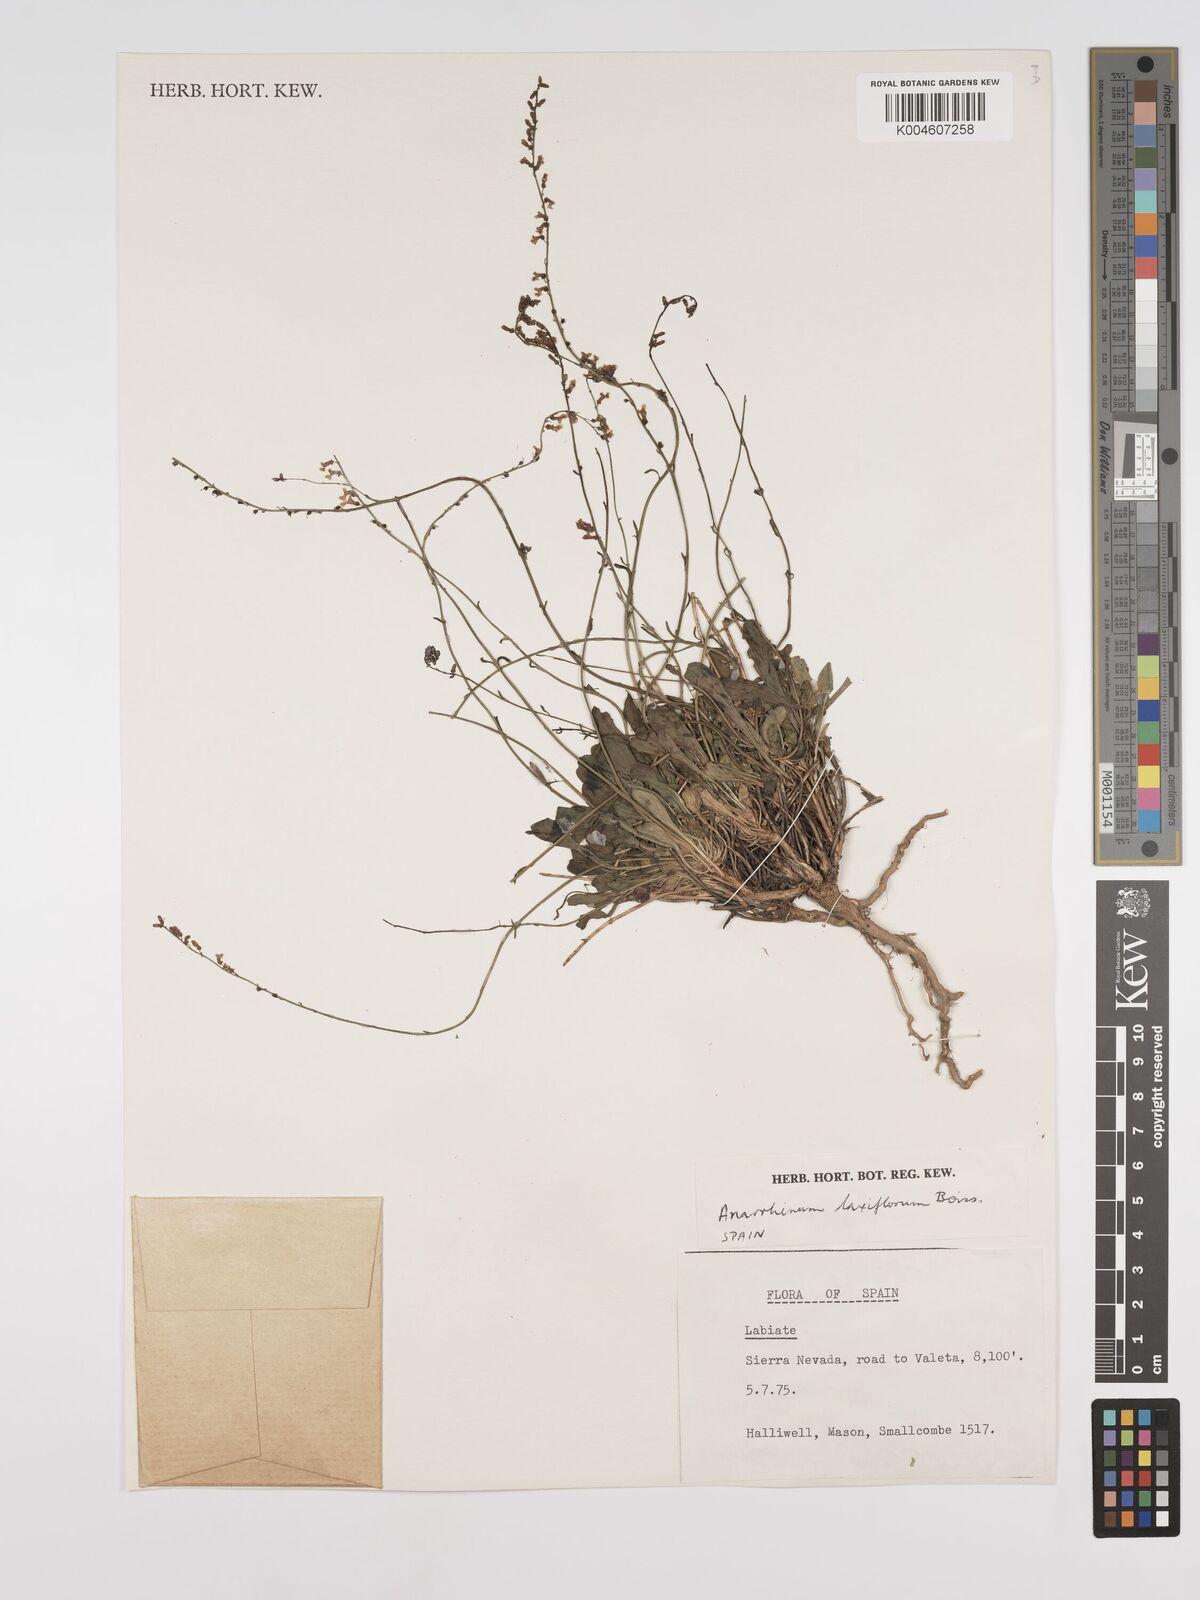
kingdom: Plantae
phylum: Tracheophyta
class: Magnoliopsida
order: Lamiales
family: Plantaginaceae
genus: Anarrhinum
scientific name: Anarrhinum laxiflorum
